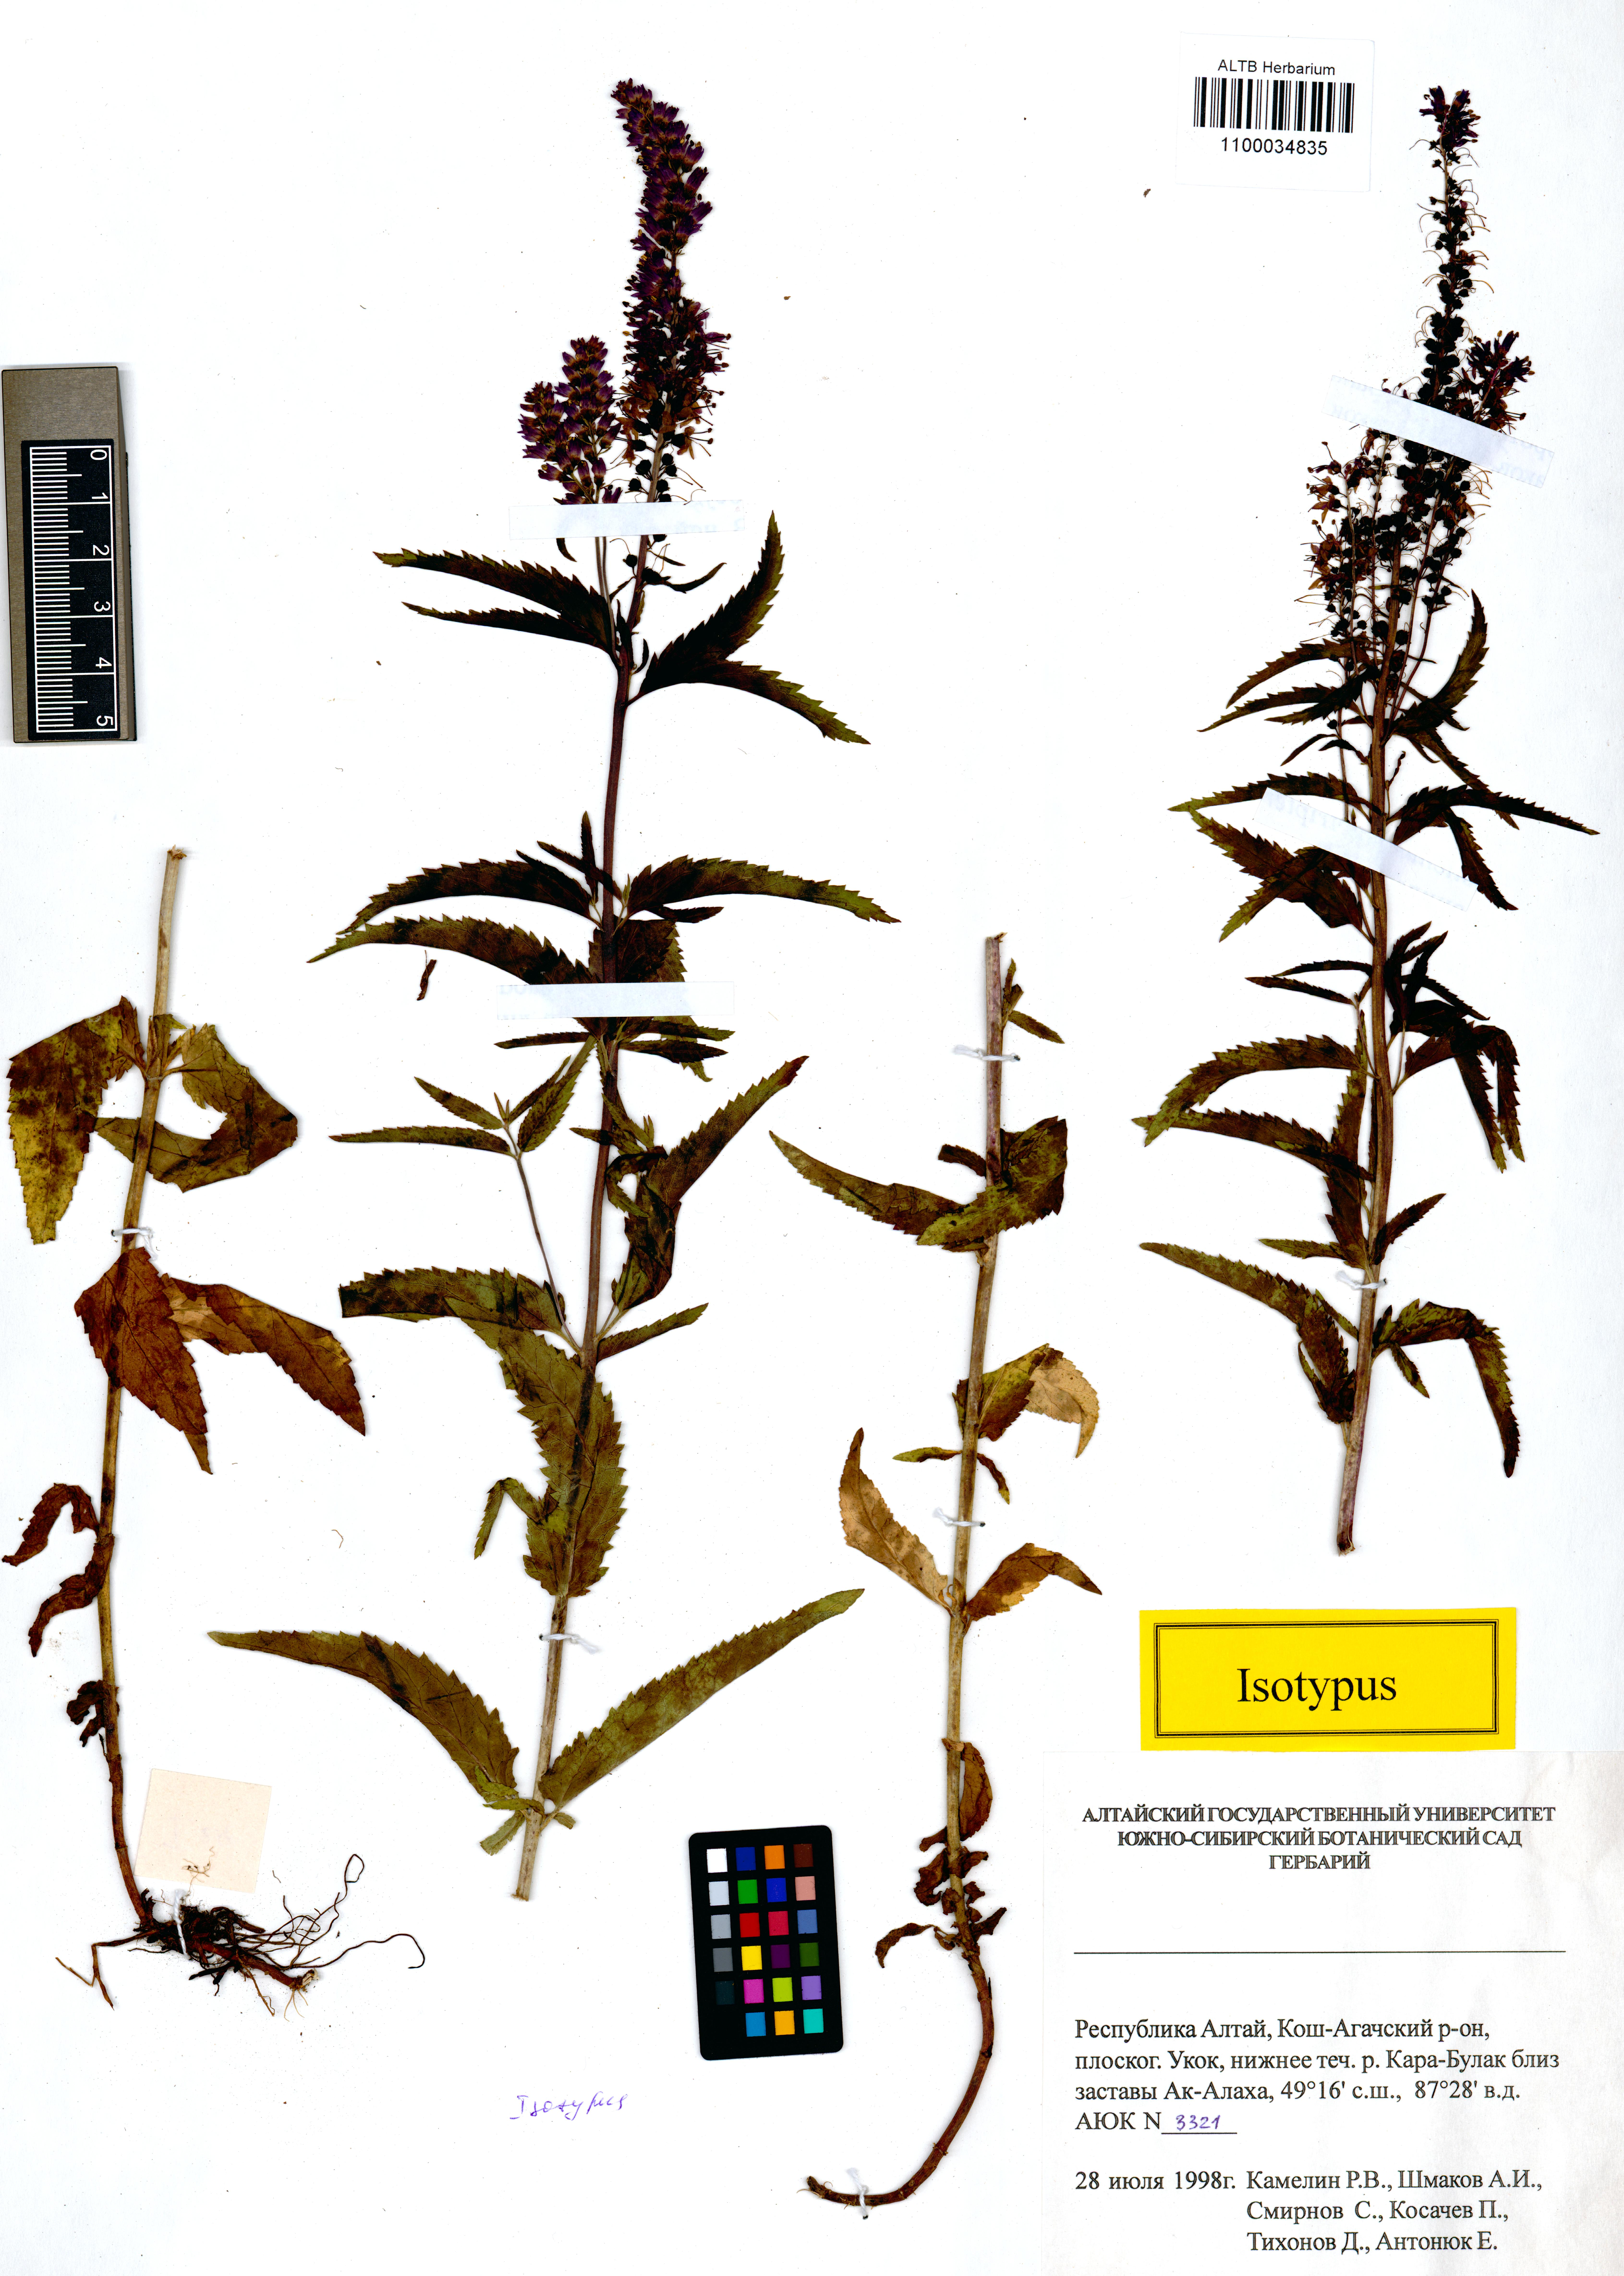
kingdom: Plantae
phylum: Tracheophyta
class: Magnoliopsida
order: Lamiales
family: Plantaginaceae
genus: Veronica
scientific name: Veronica schmakovii
